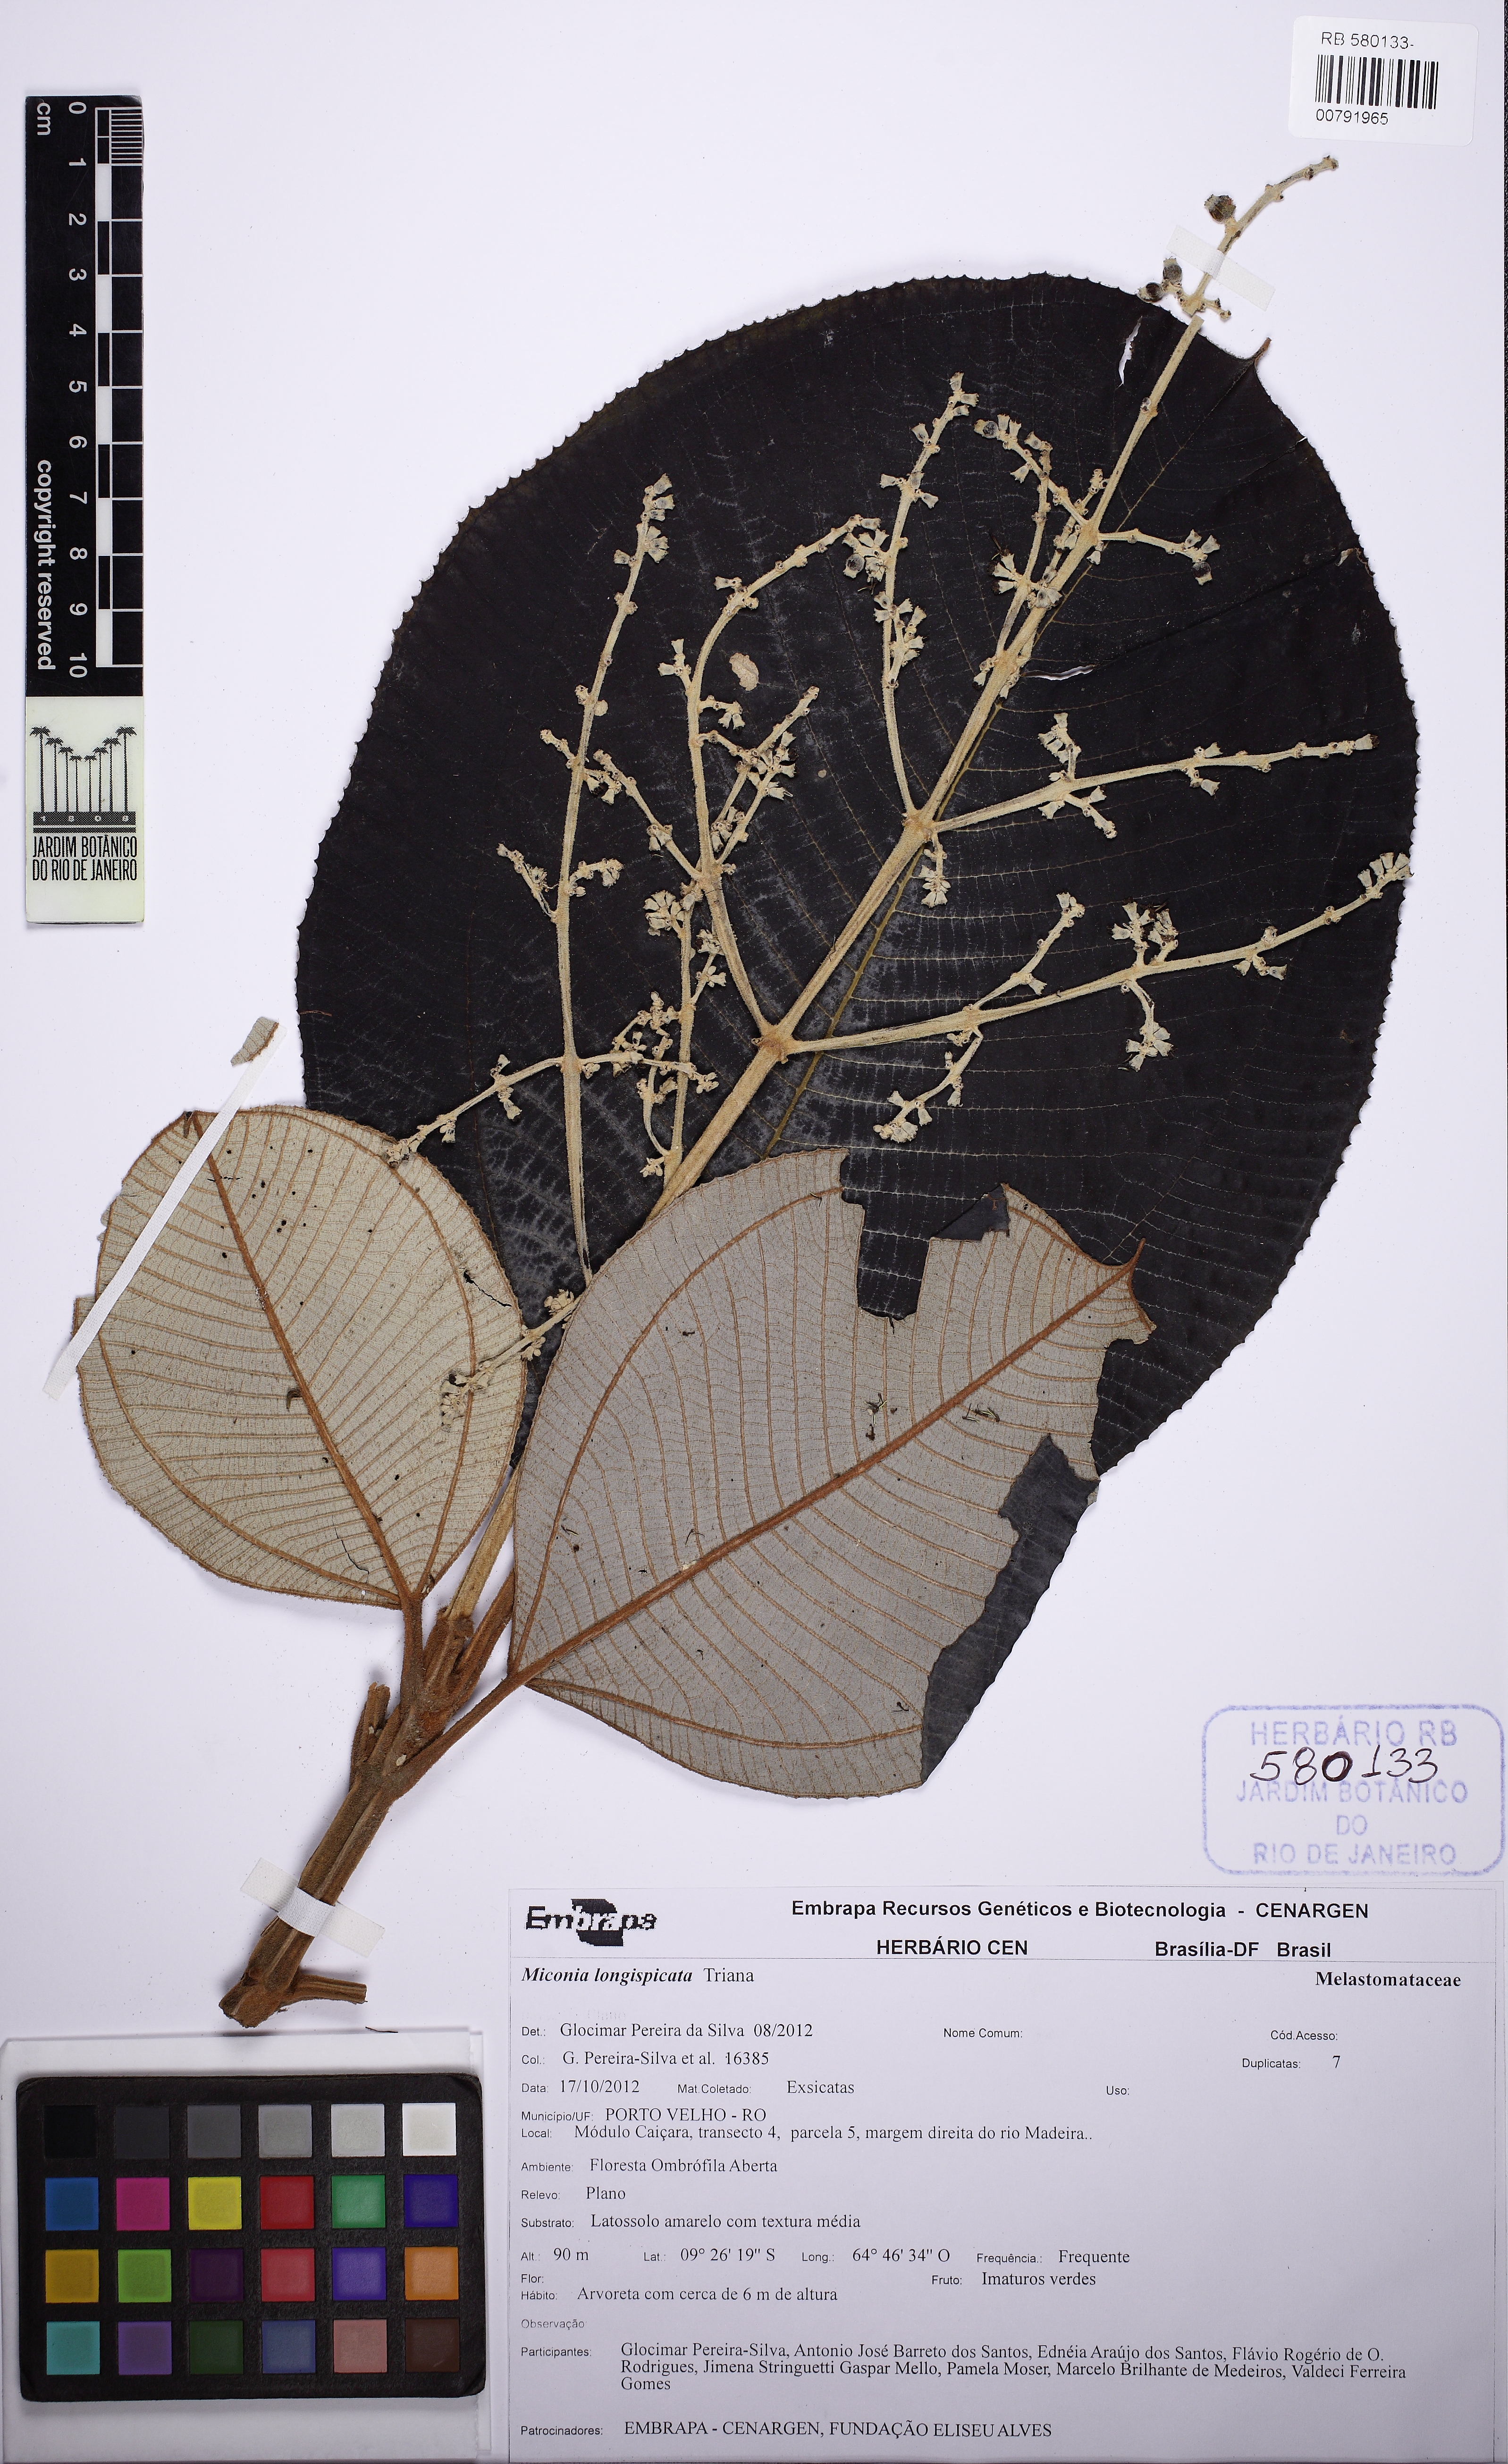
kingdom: Plantae
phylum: Tracheophyta
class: Magnoliopsida
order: Myrtales
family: Melastomataceae
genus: Miconia
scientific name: Miconia kavanayensis
